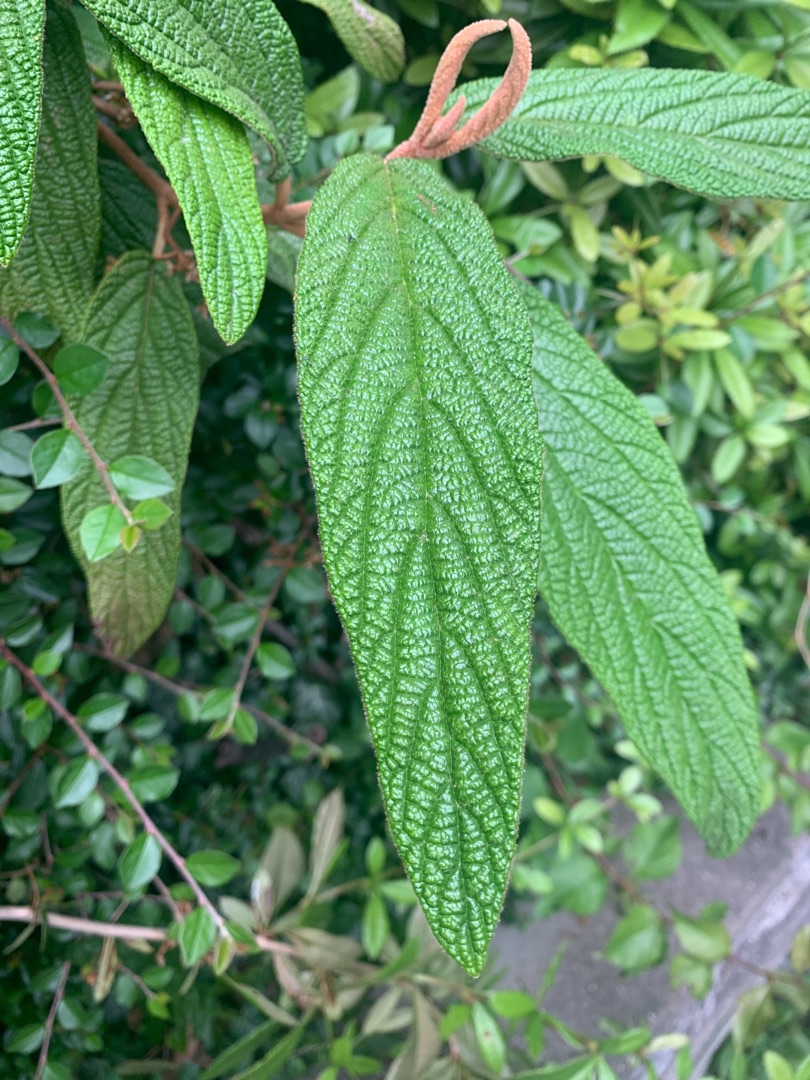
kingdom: Plantae
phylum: Tracheophyta
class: Magnoliopsida
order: Dipsacales
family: Viburnaceae
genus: Viburnum
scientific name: Viburnum rhytidophyllum
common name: Rynkeblad
